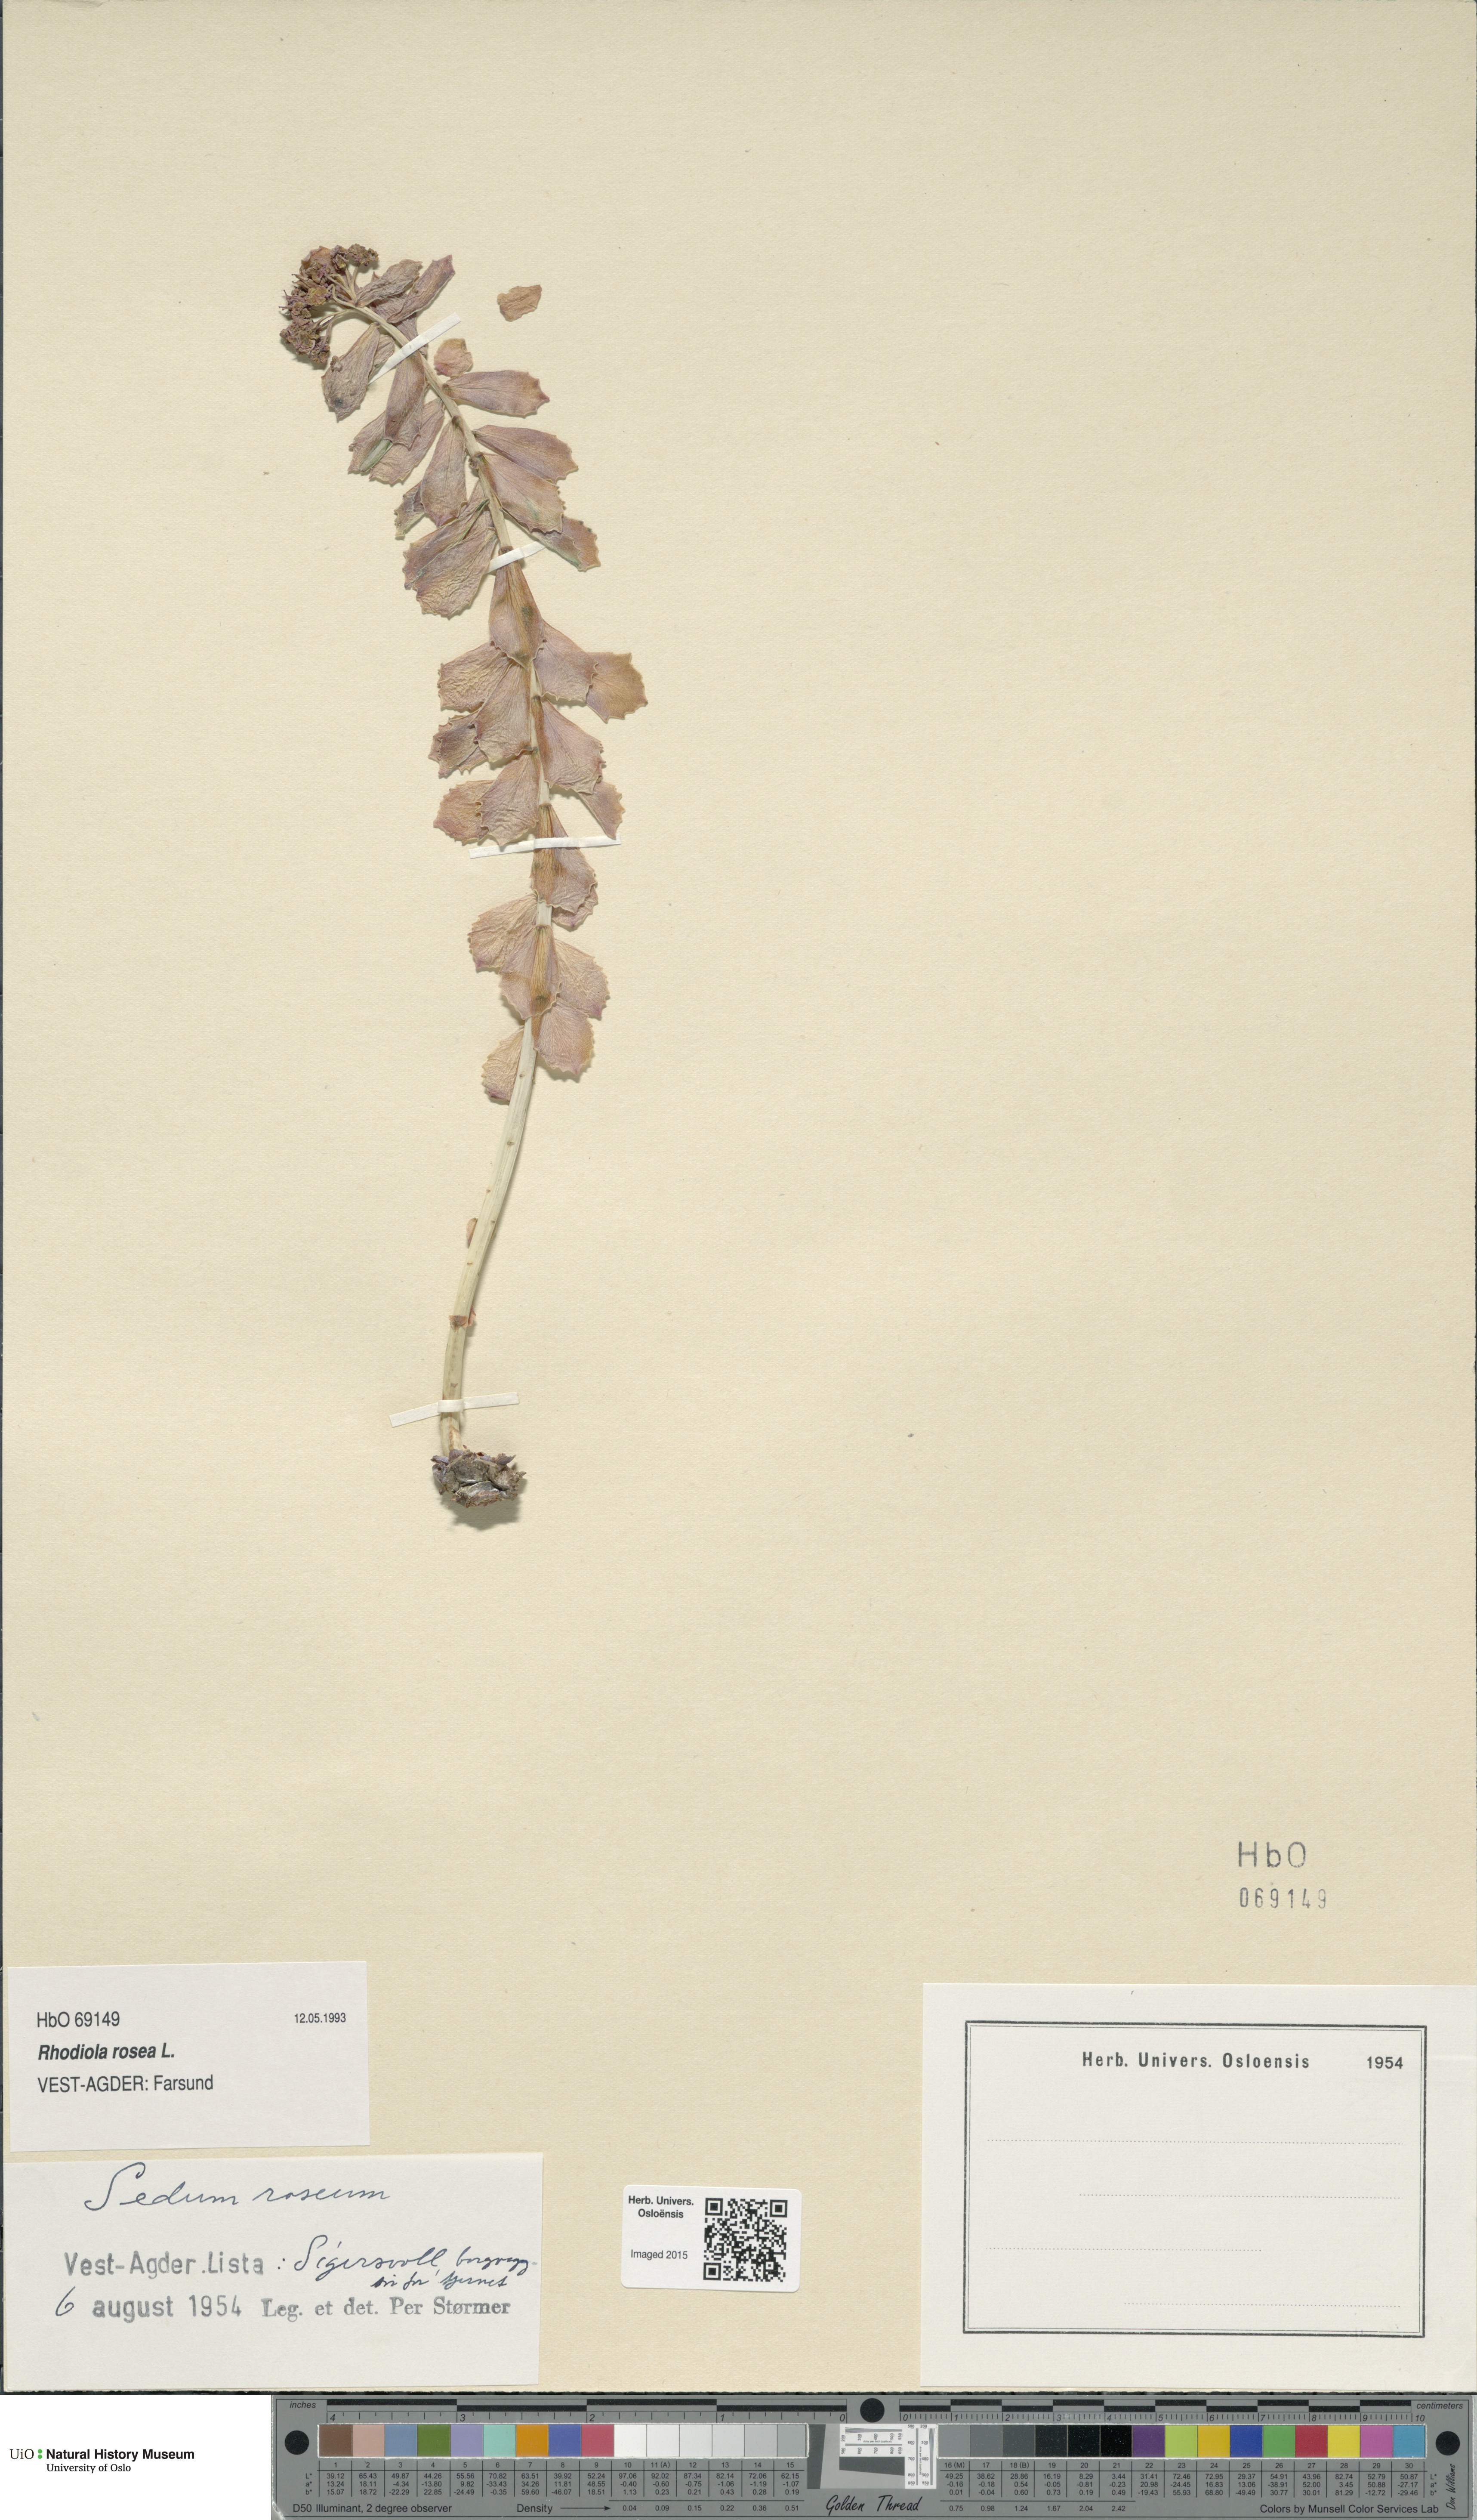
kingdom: Plantae
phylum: Tracheophyta
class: Magnoliopsida
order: Saxifragales
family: Crassulaceae
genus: Rhodiola
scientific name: Rhodiola rosea
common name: Roseroot
